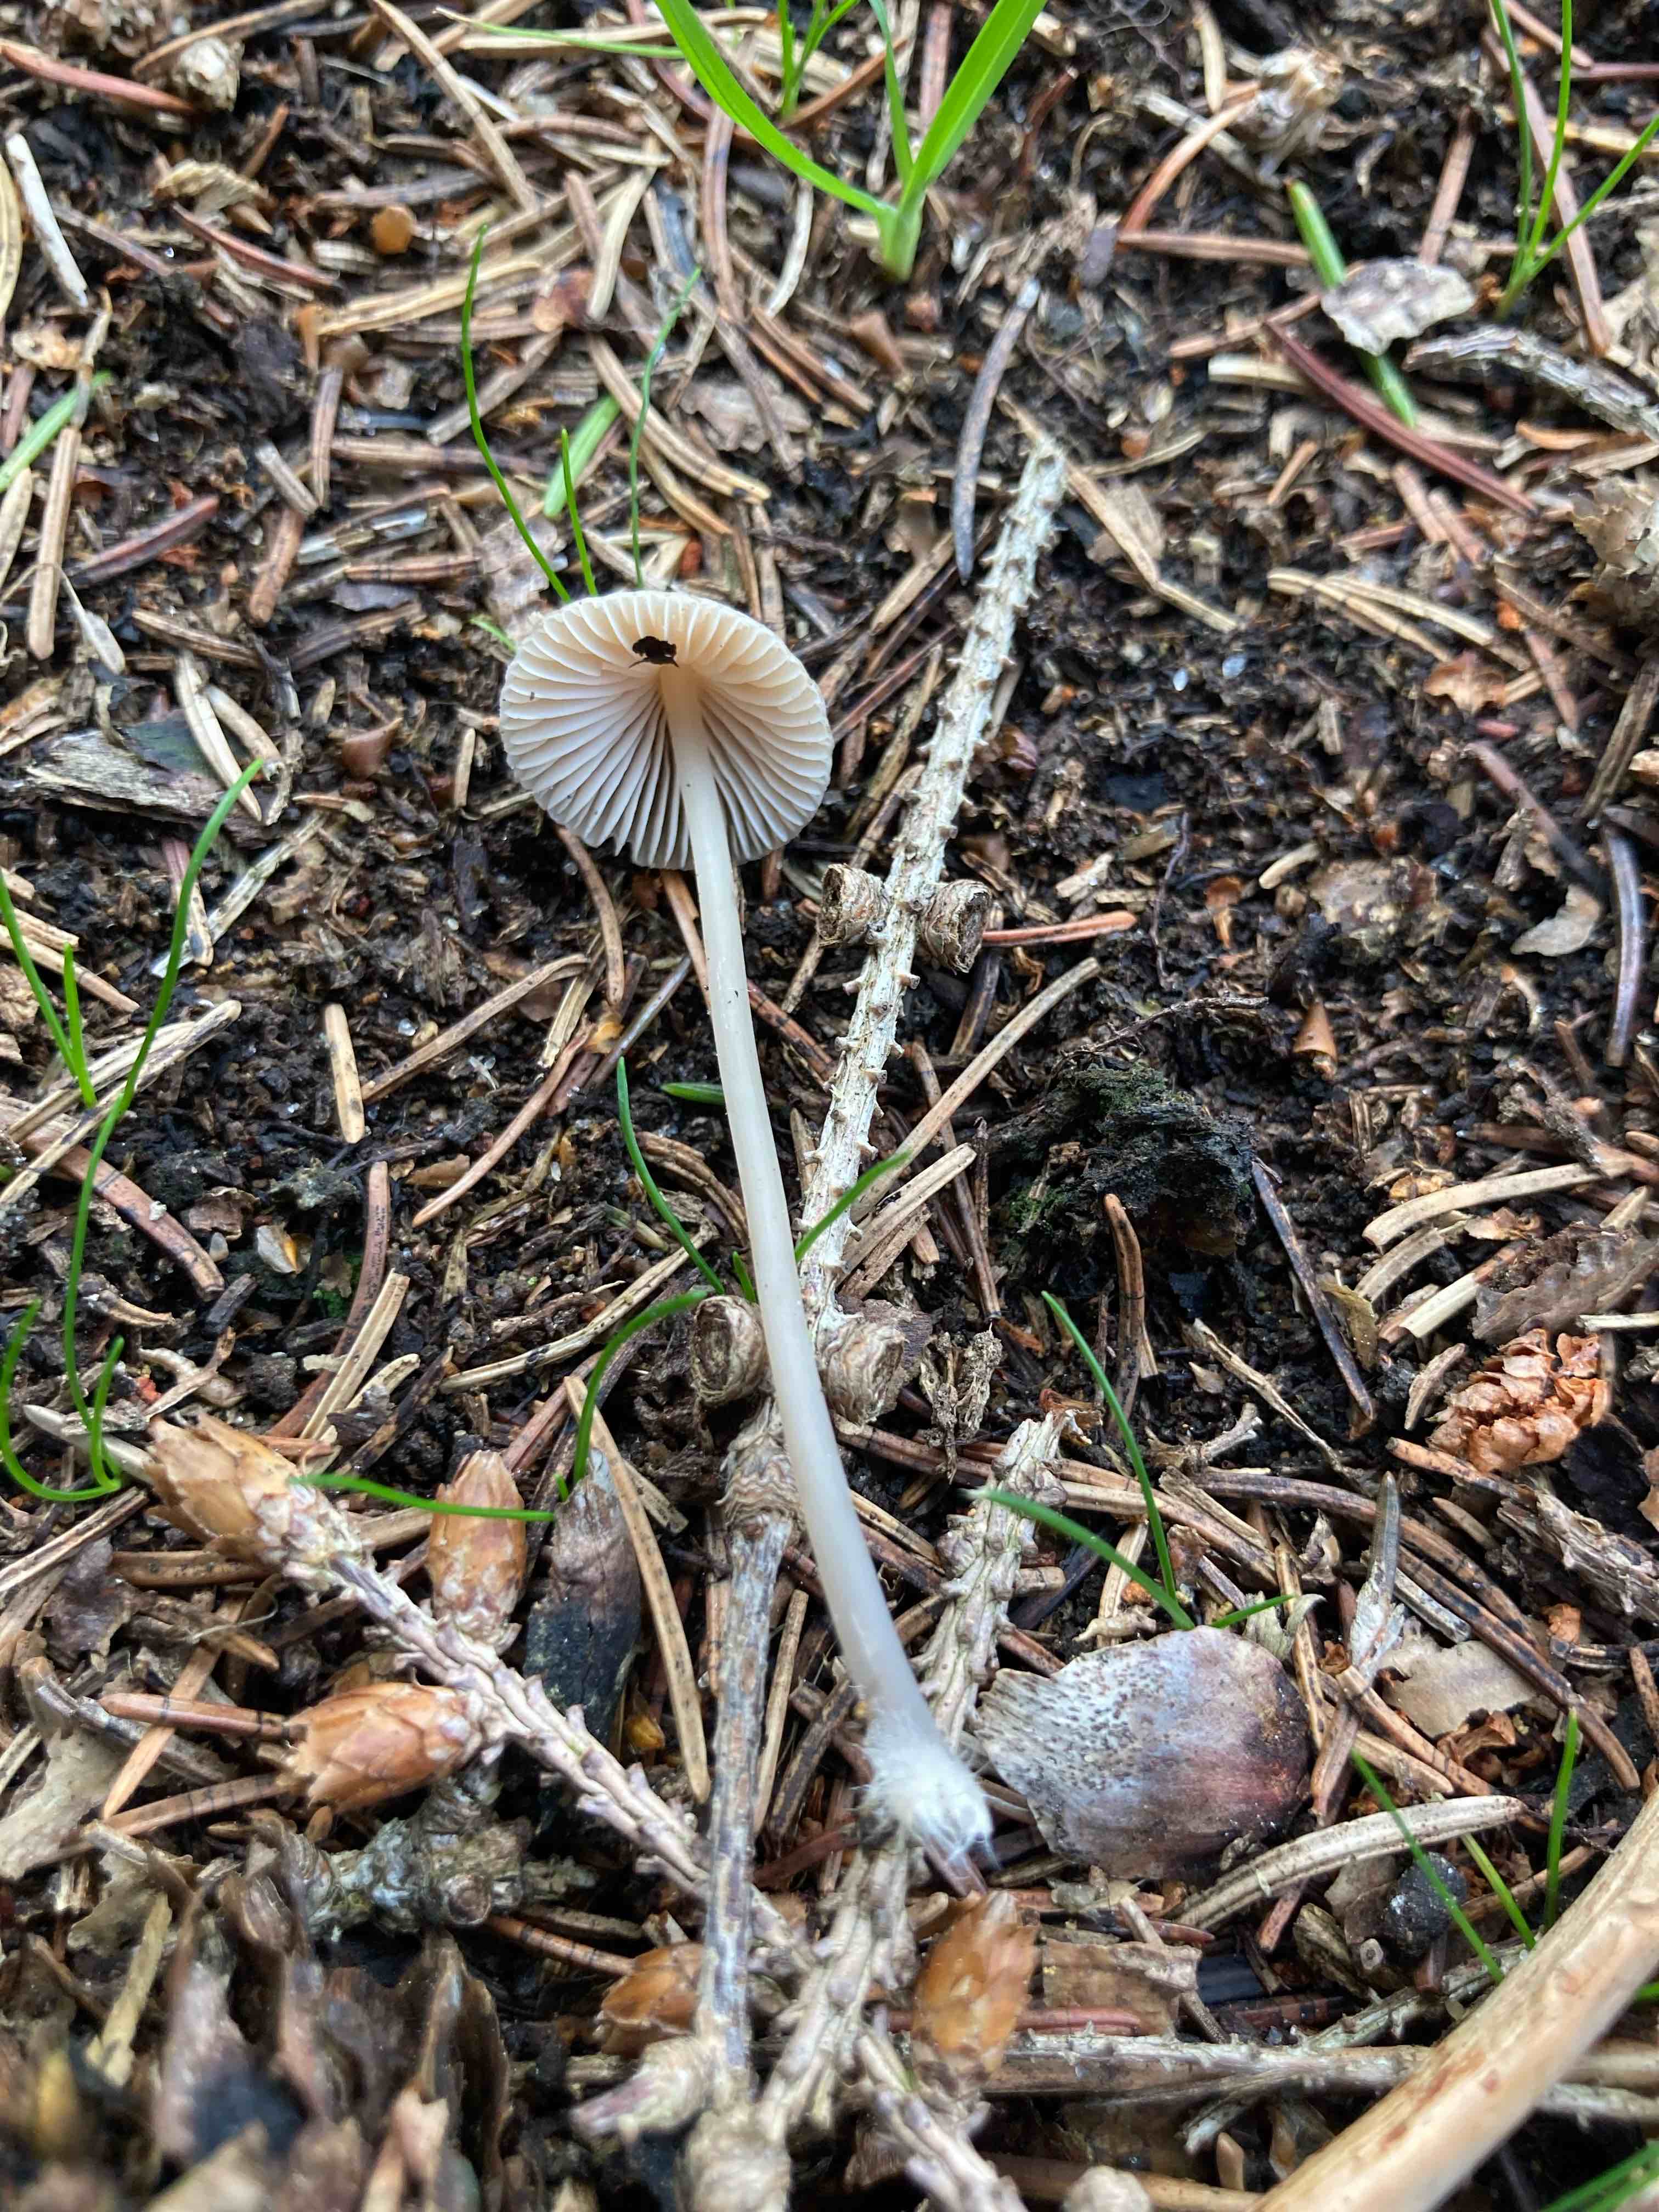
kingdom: Fungi
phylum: Basidiomycota
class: Agaricomycetes
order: Agaricales
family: Mycenaceae
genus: Mycena
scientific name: Mycena metata
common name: rødlig huesvamp
